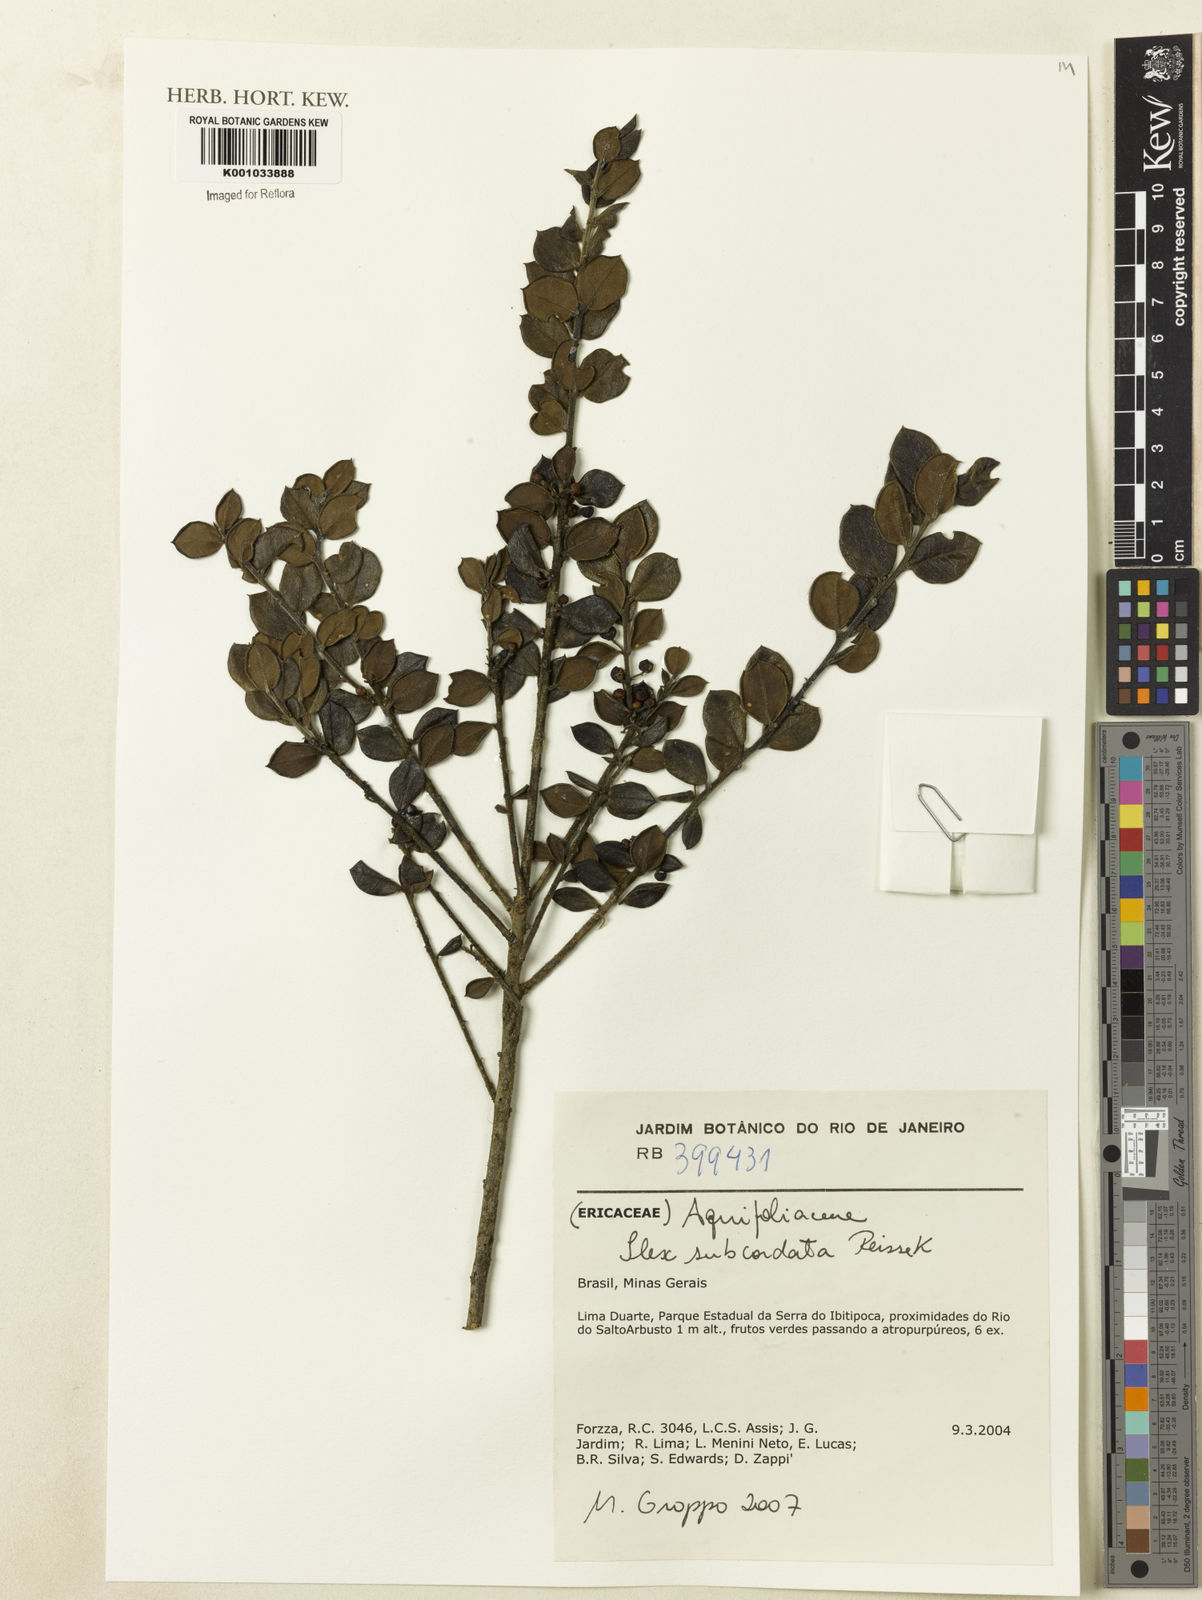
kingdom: Plantae
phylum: Tracheophyta
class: Magnoliopsida
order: Aquifoliales
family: Aquifoliaceae
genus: Ilex
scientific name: Ilex subcordata
